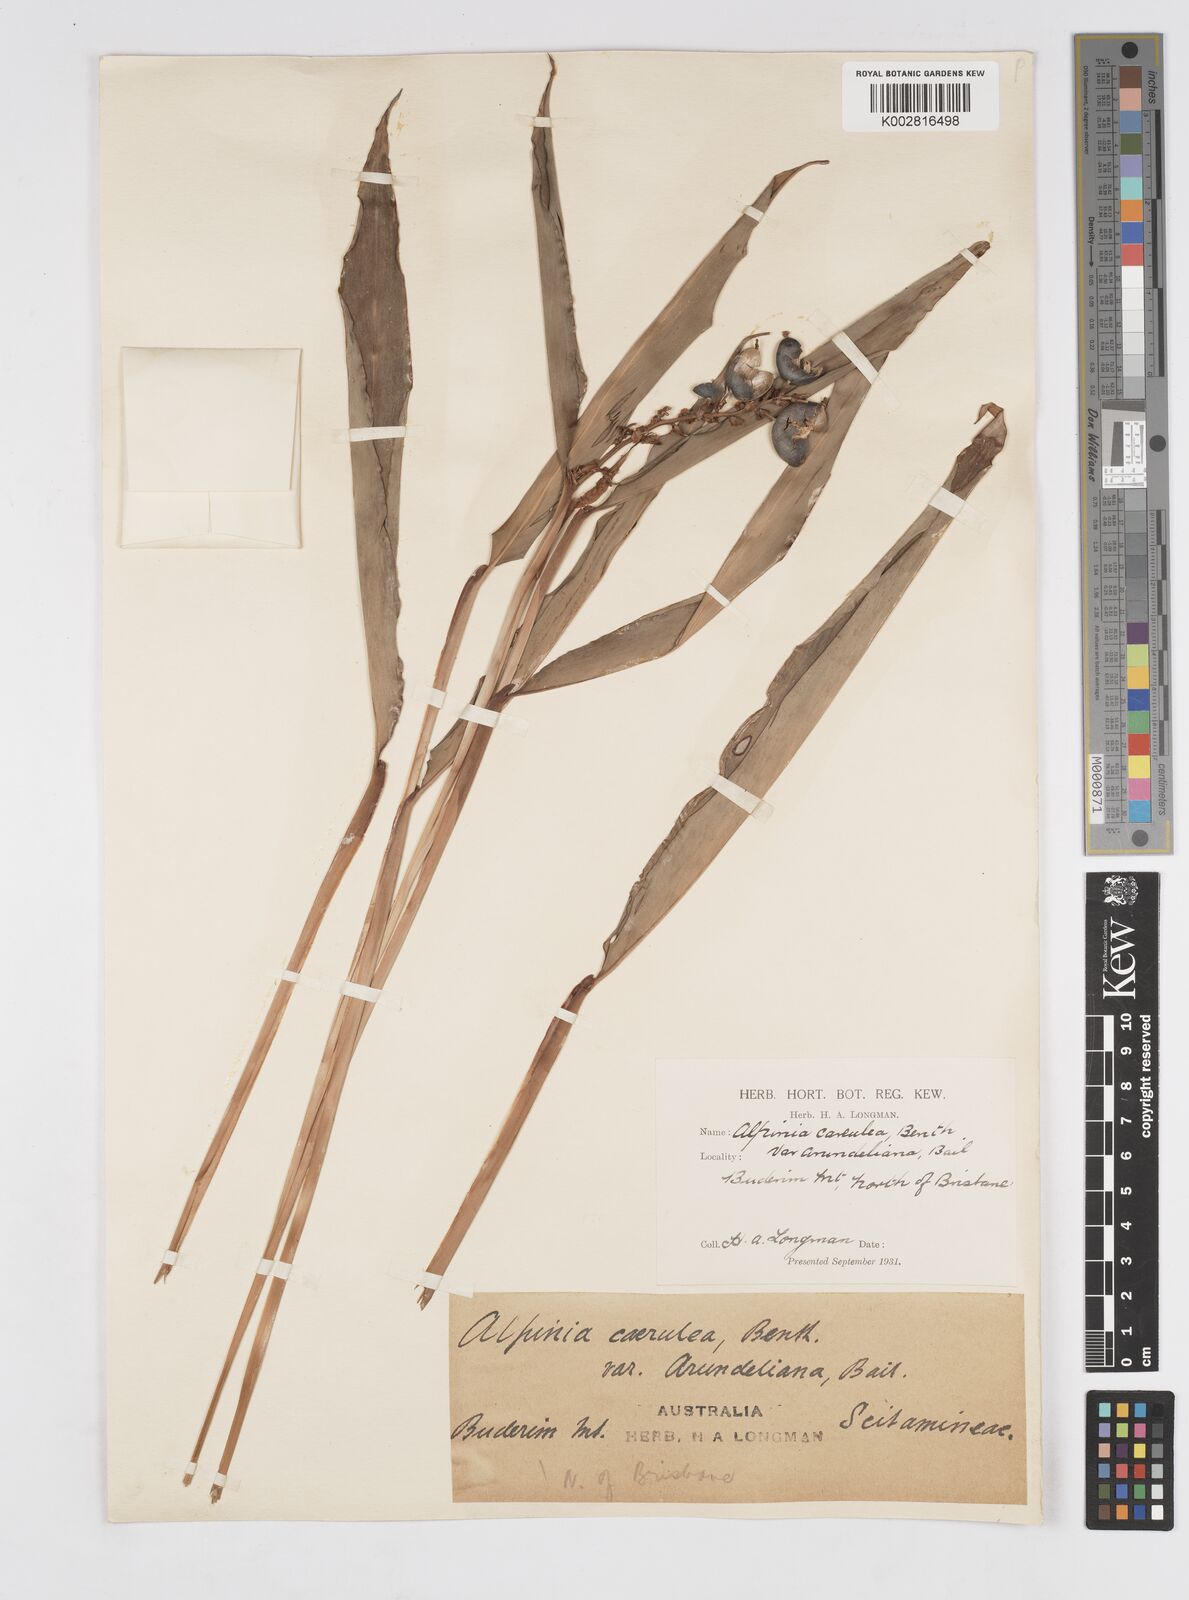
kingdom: Plantae
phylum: Tracheophyta
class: Liliopsida
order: Zingiberales
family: Zingiberaceae
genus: Alpinia
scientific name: Alpinia arundelliana
